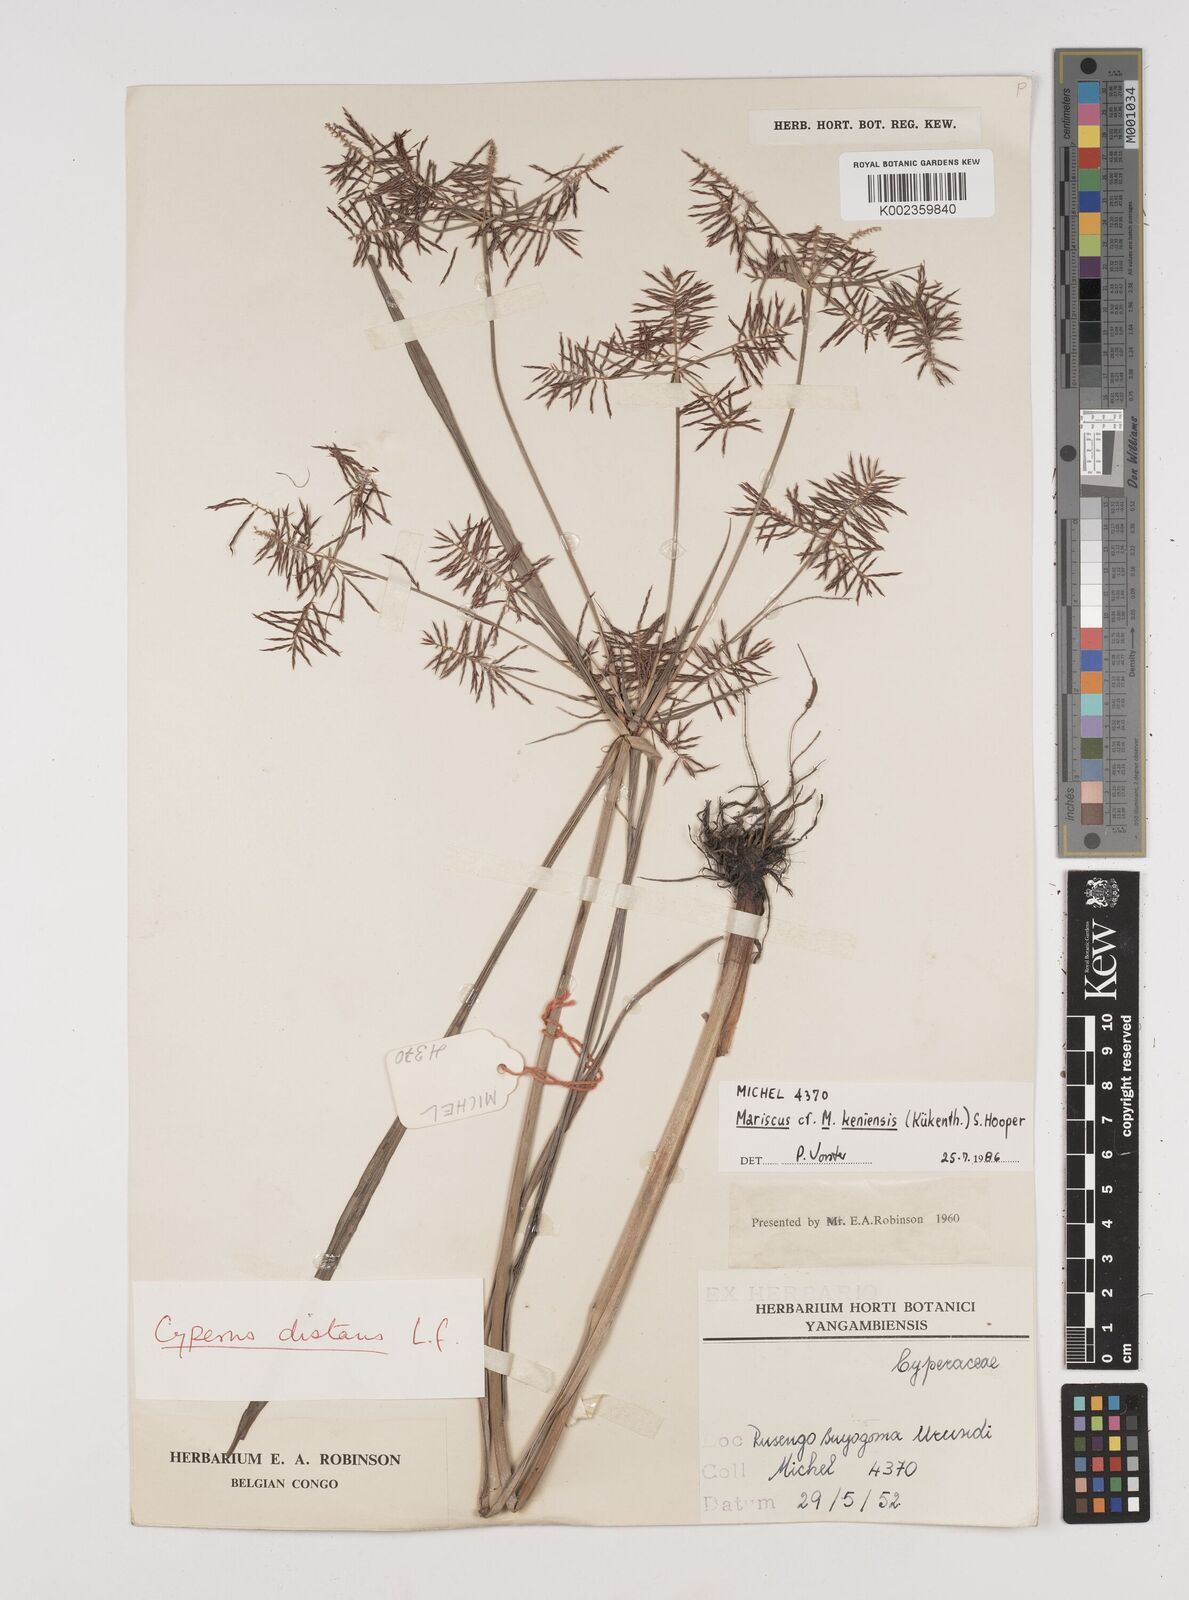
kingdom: Plantae
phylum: Tracheophyta
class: Liliopsida
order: Poales
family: Cyperaceae
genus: Cyperus
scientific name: Cyperus distans
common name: Slender cyperus
